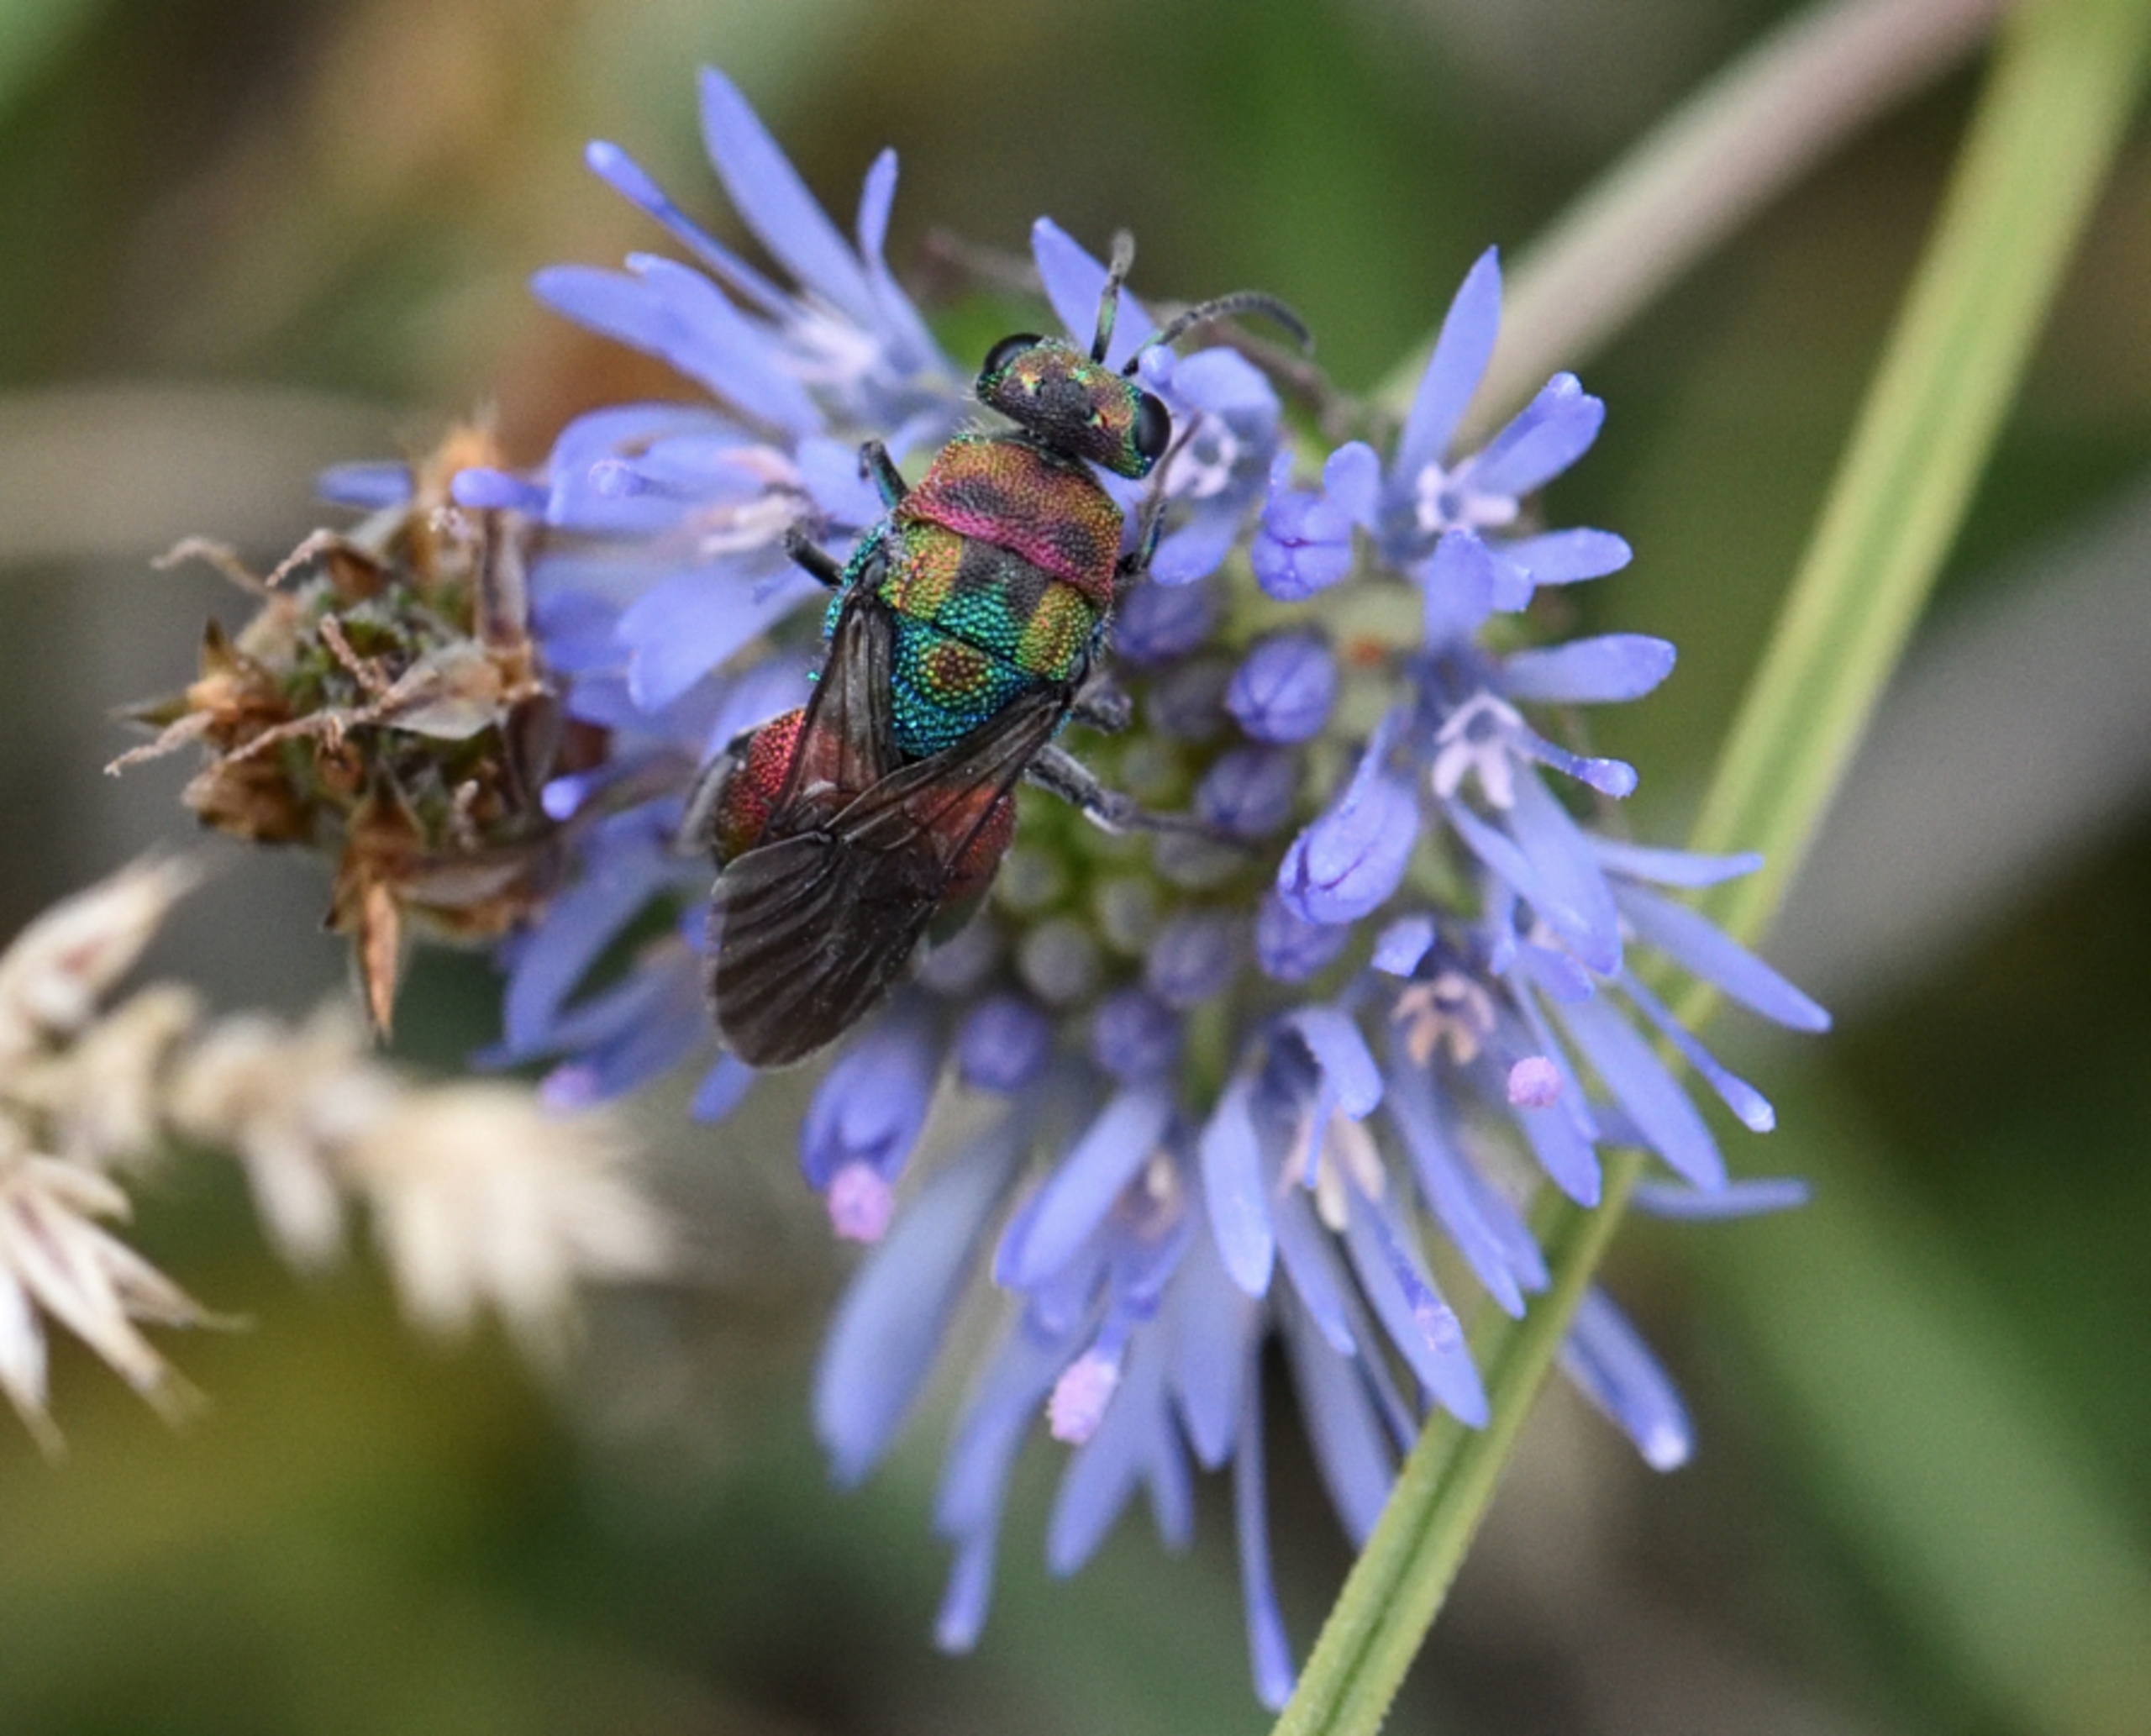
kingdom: Animalia
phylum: Arthropoda
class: Insecta
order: Hymenoptera
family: Chrysididae
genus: Hedychrum
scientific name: Hedychrum rutilans
